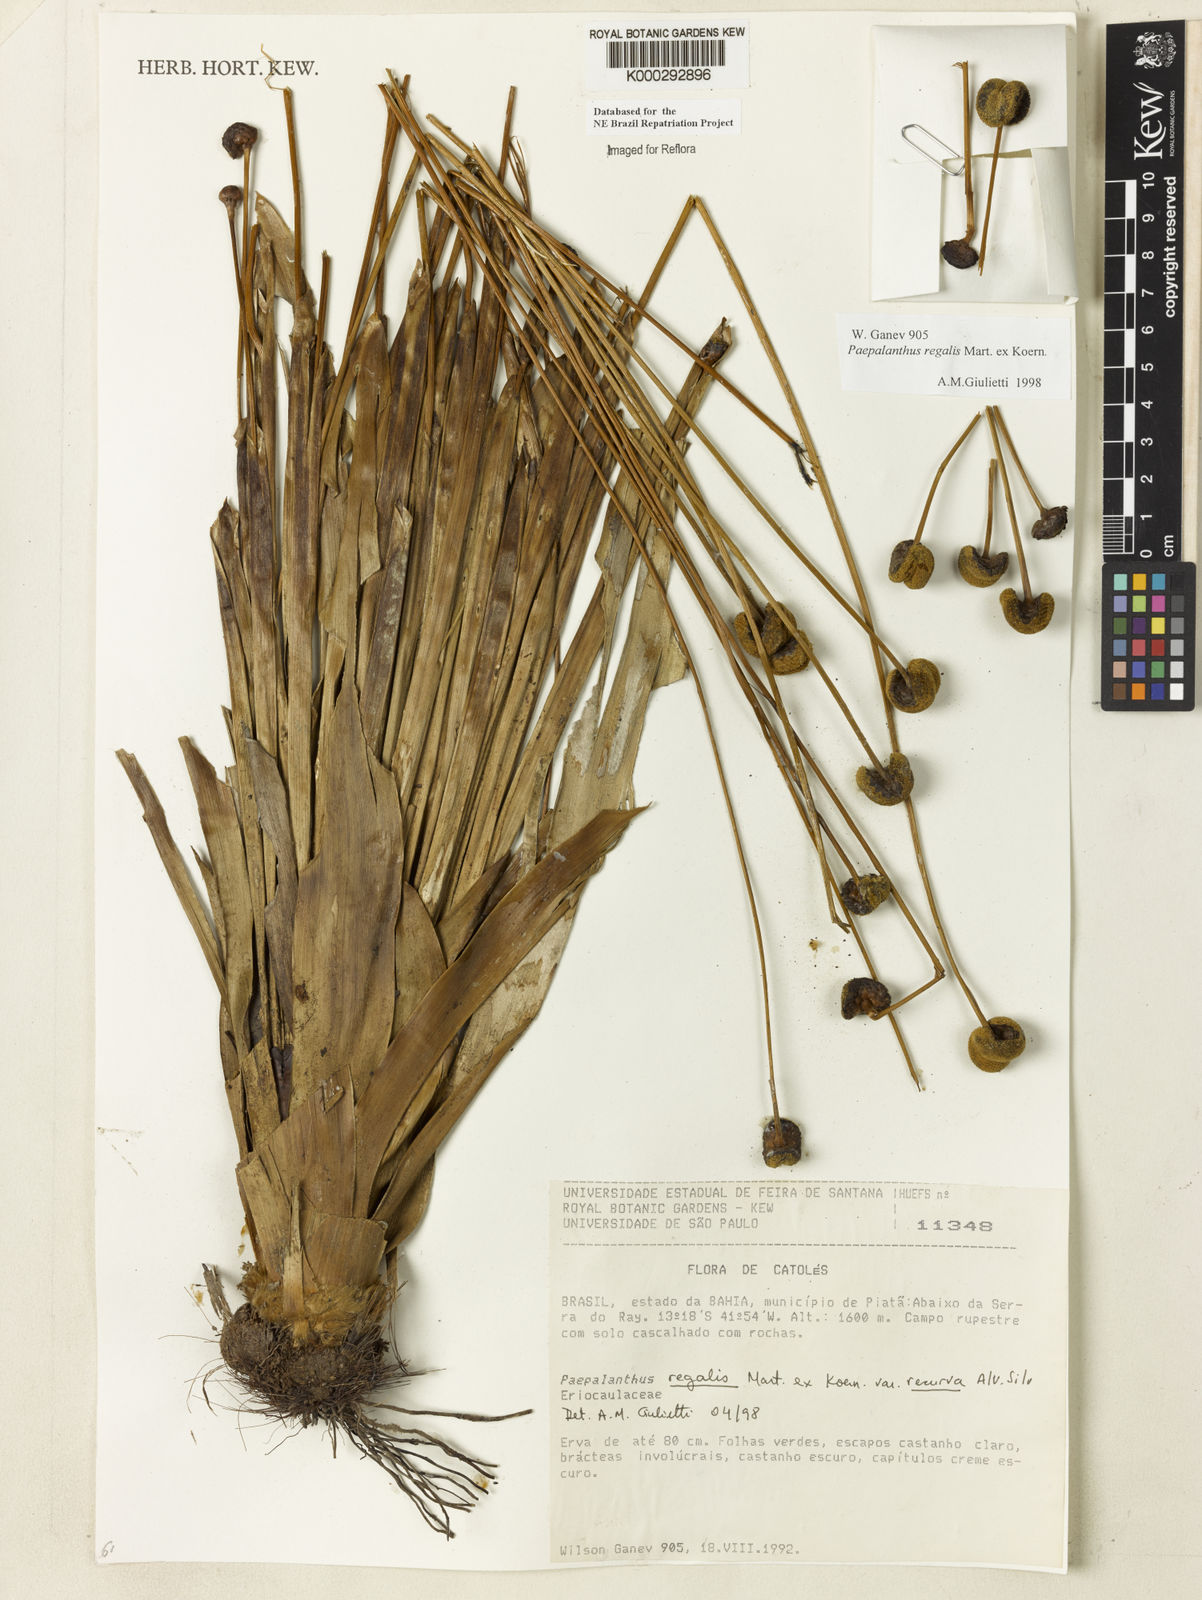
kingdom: Plantae
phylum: Tracheophyta
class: Liliopsida
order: Poales
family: Eriocaulaceae
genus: Paepalanthus
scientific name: Paepalanthus
